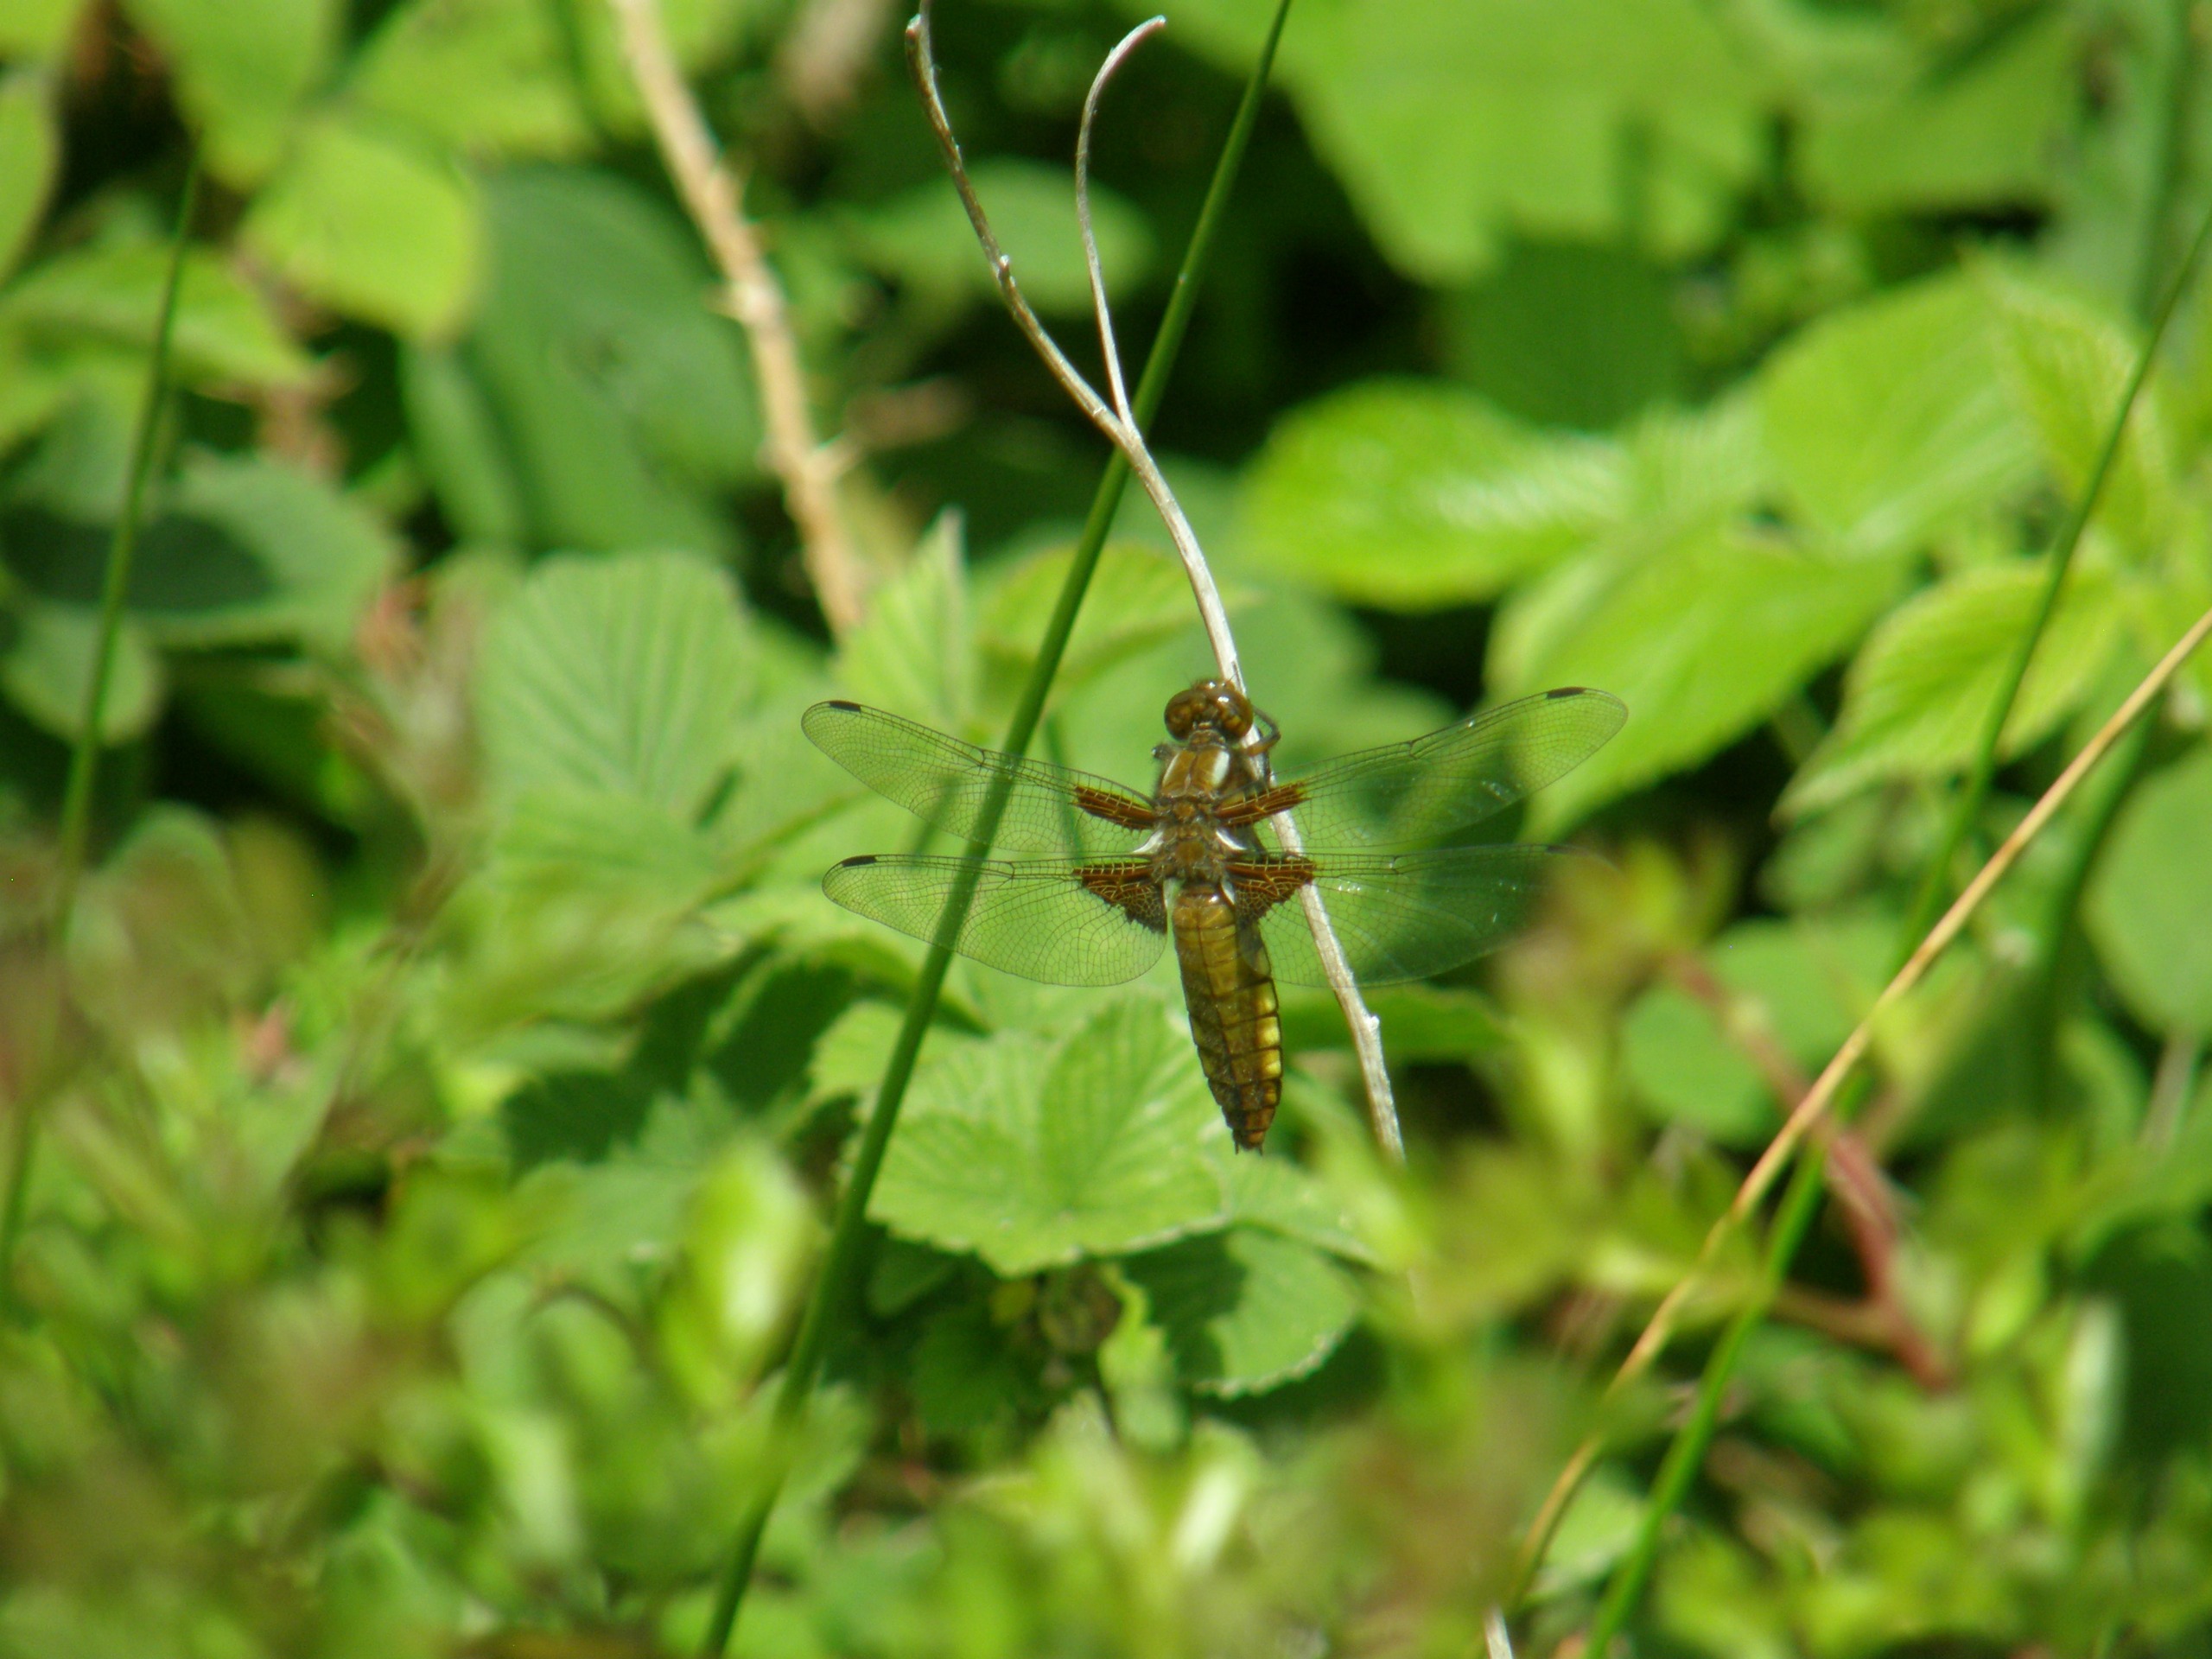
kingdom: Animalia
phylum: Arthropoda
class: Insecta
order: Odonata
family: Libellulidae
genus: Libellula
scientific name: Libellula depressa
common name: Blå libel
